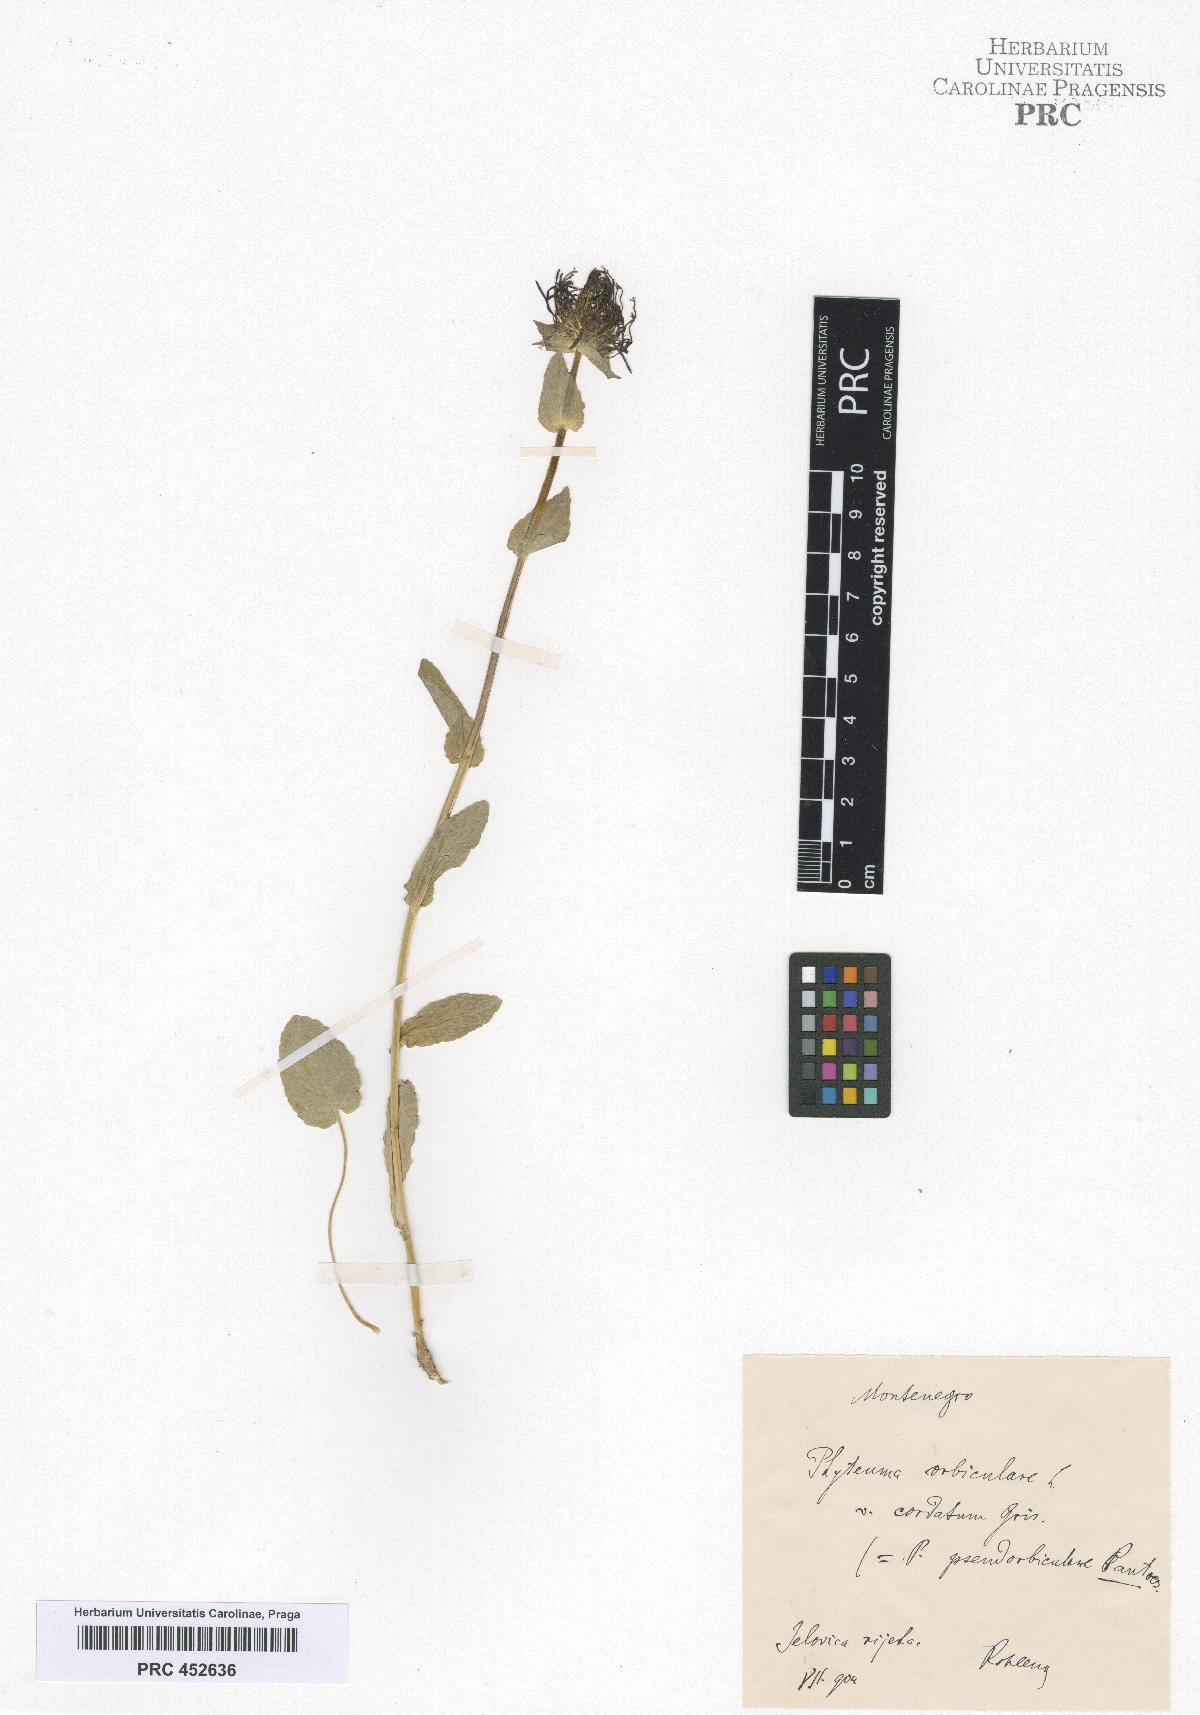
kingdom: Plantae
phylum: Tracheophyta
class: Magnoliopsida
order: Asterales
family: Campanulaceae
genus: Phyteuma
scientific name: Phyteuma orbiculare
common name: Round-headed rampion
